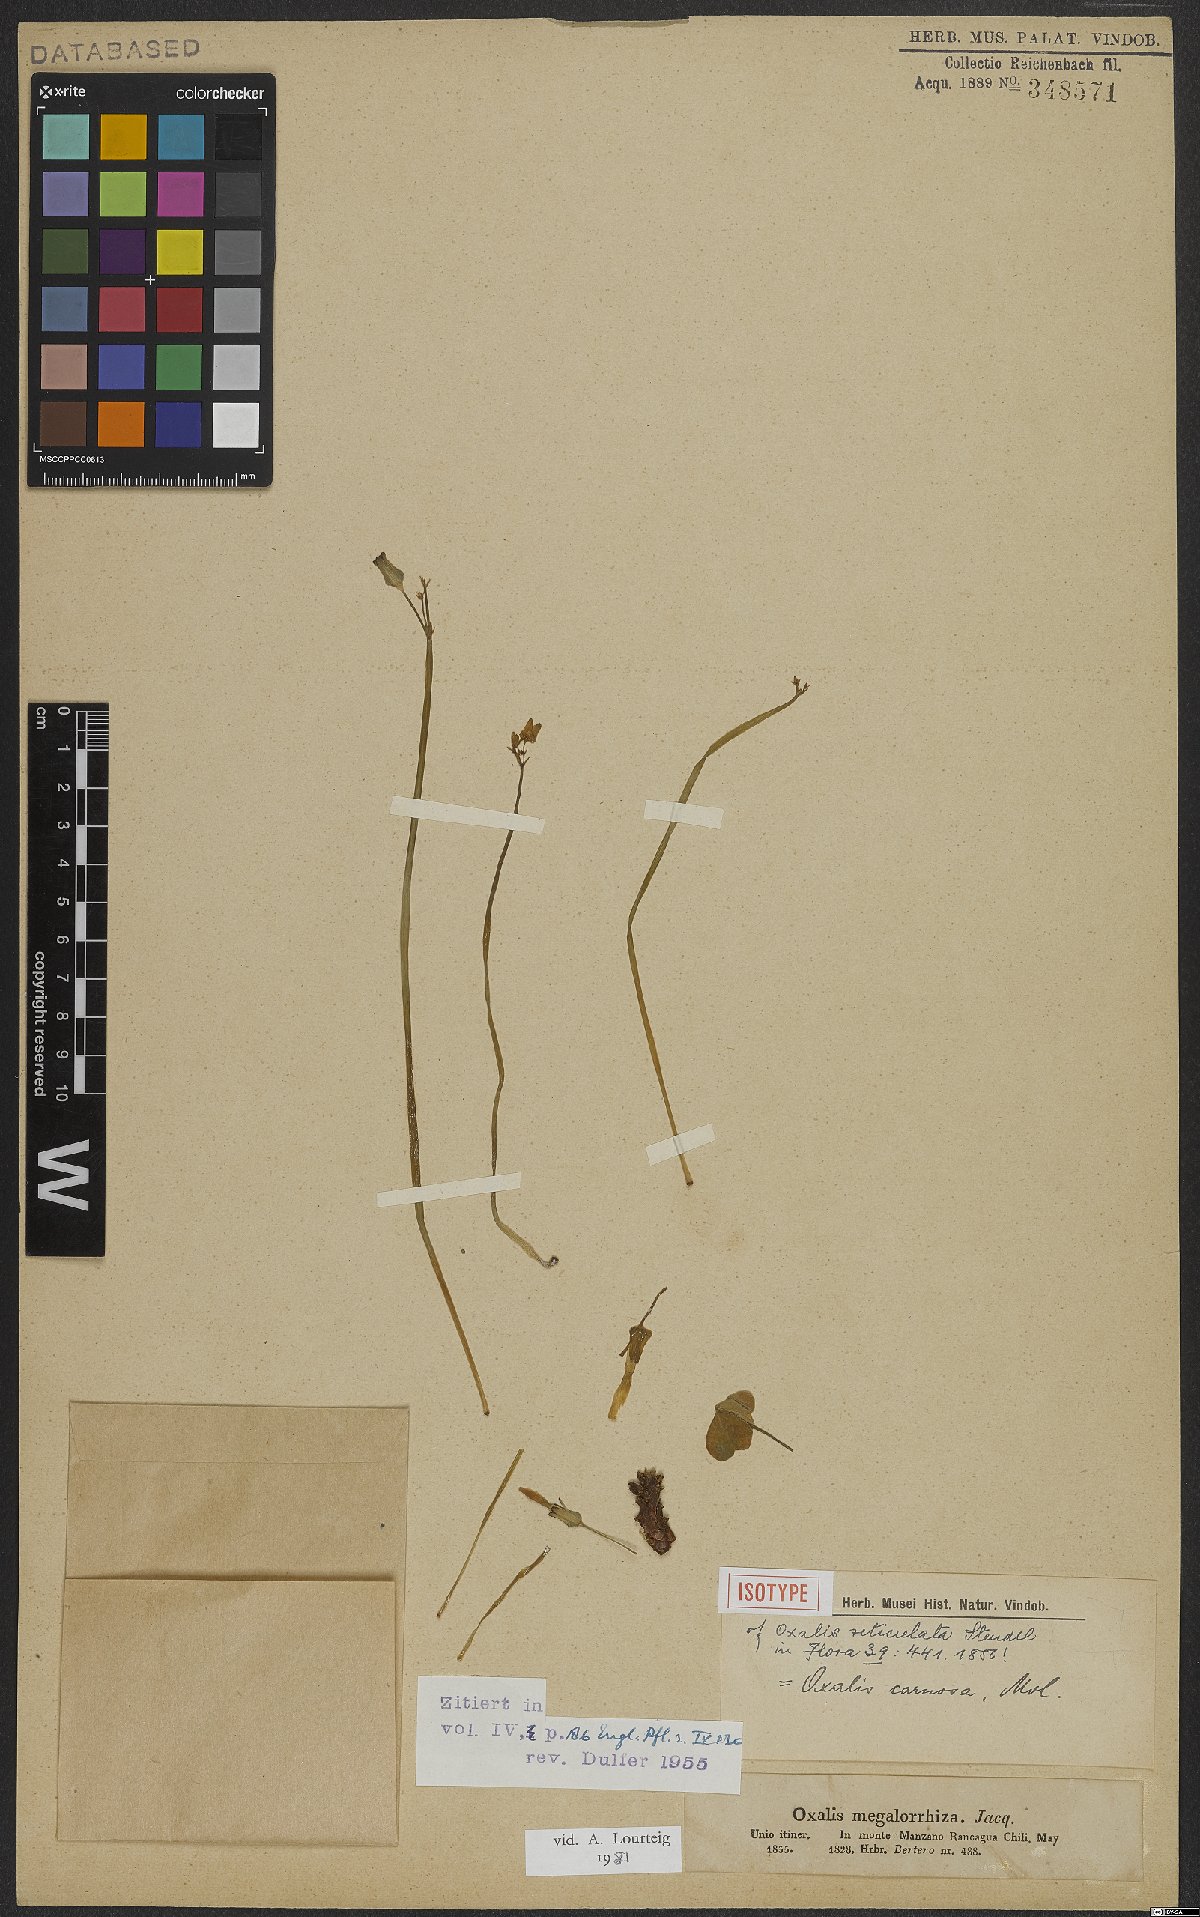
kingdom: Plantae
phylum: Tracheophyta
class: Magnoliopsida
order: Oxalidales
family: Oxalidaceae
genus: Oxalis
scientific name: Oxalis megalorrhiza
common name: Fleshy yellow-sorrel
